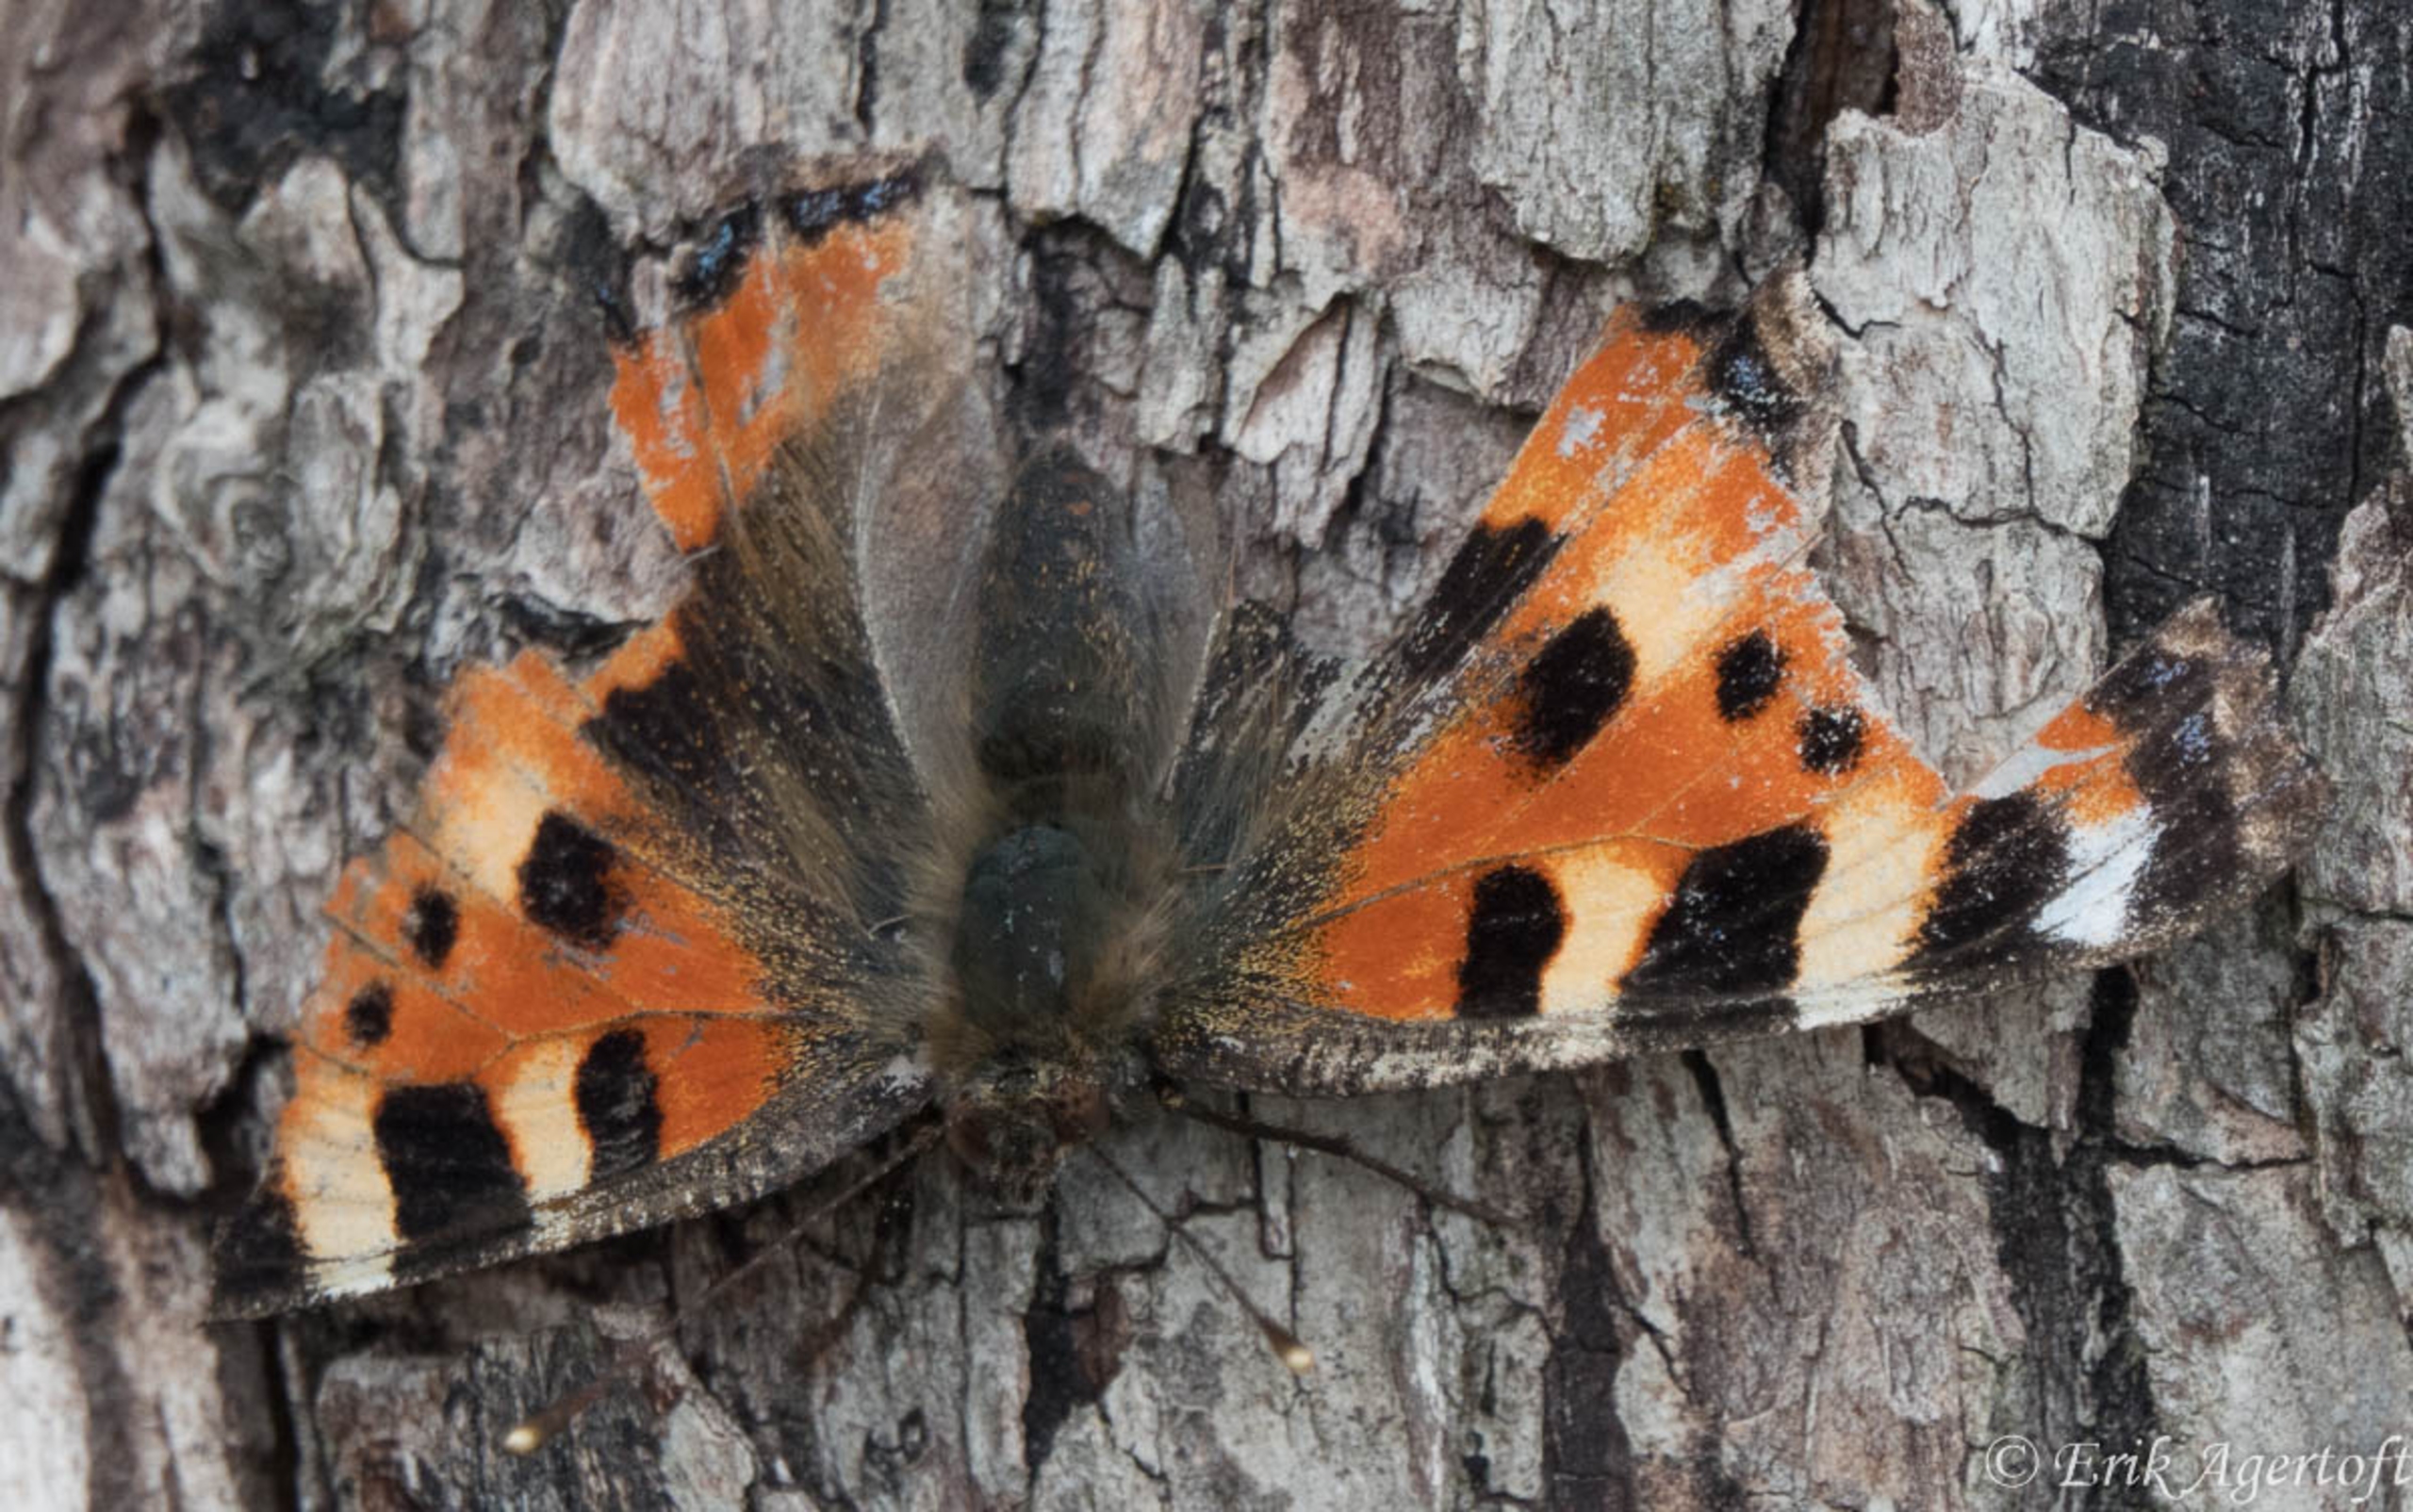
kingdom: Animalia
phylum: Arthropoda
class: Insecta
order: Lepidoptera
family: Nymphalidae
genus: Aglais
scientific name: Aglais urticae
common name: Nældens takvinge
